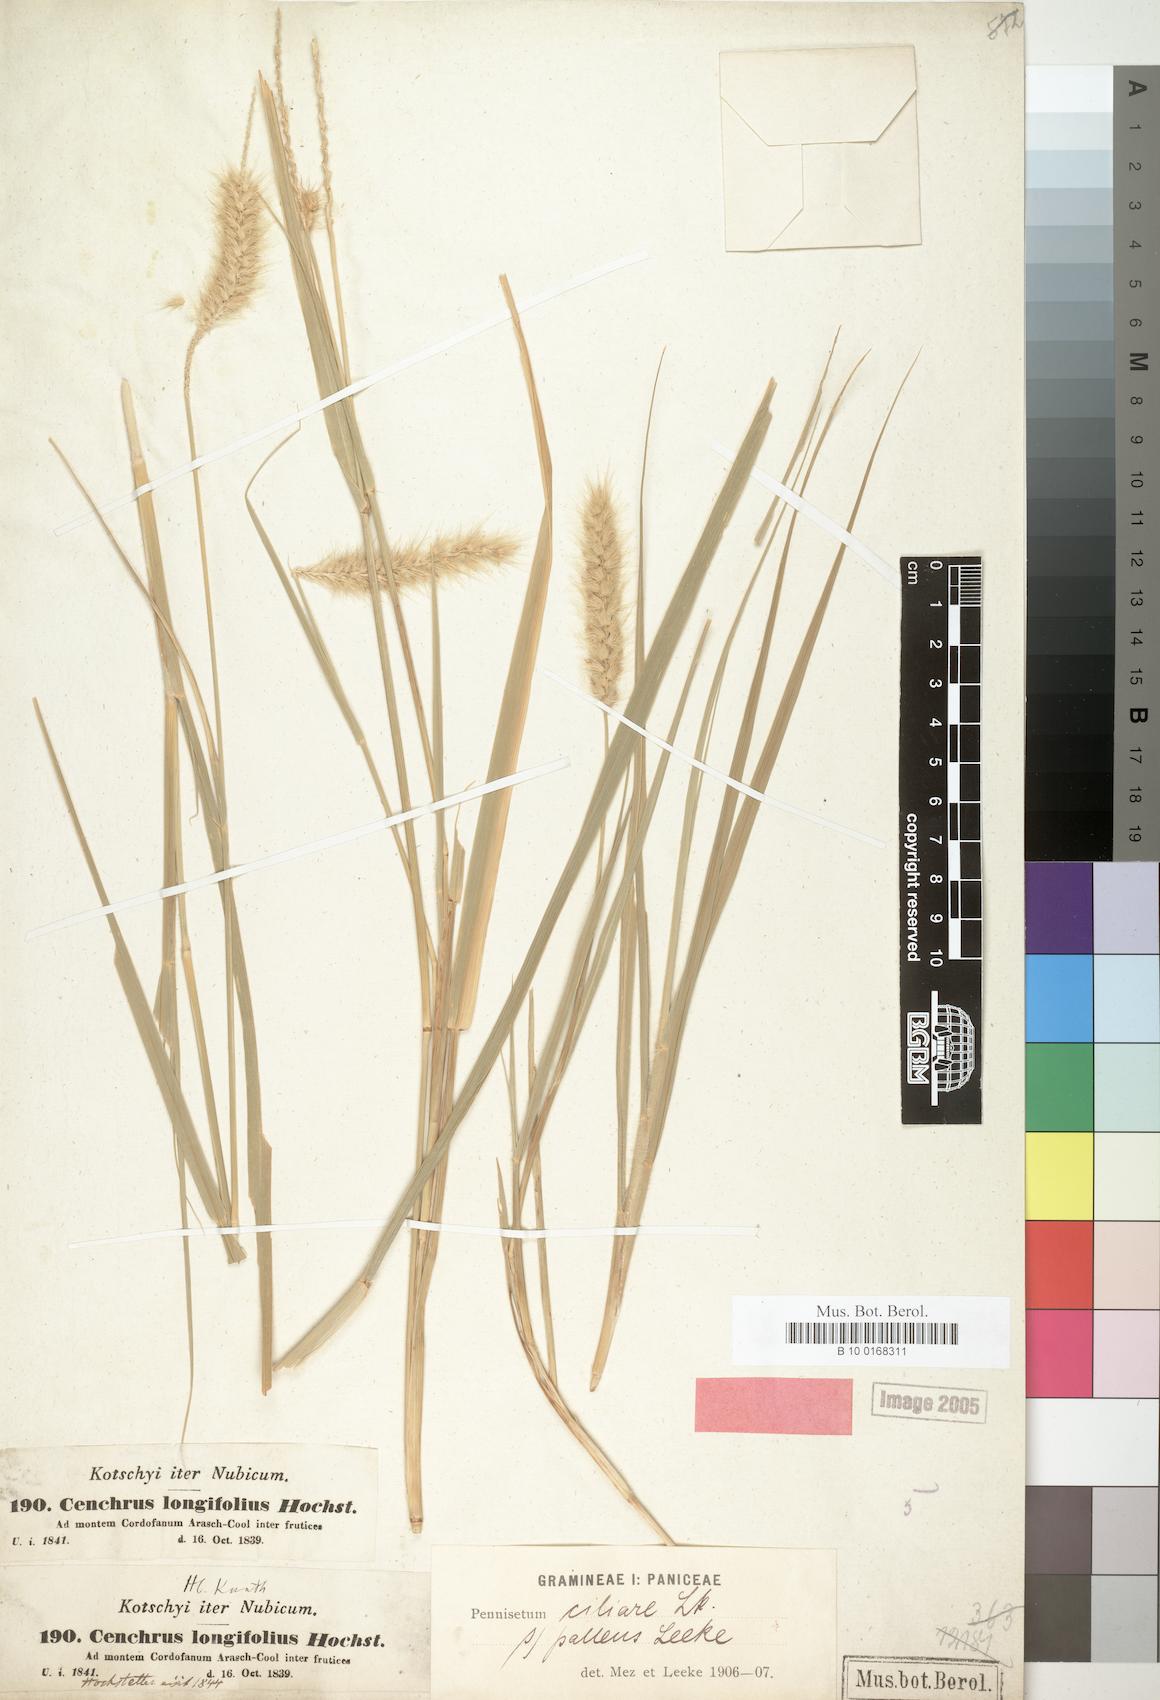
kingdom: Plantae
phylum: Tracheophyta
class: Liliopsida
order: Poales
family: Poaceae
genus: Cenchrus
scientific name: Cenchrus ciliaris
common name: Buffelgrass
